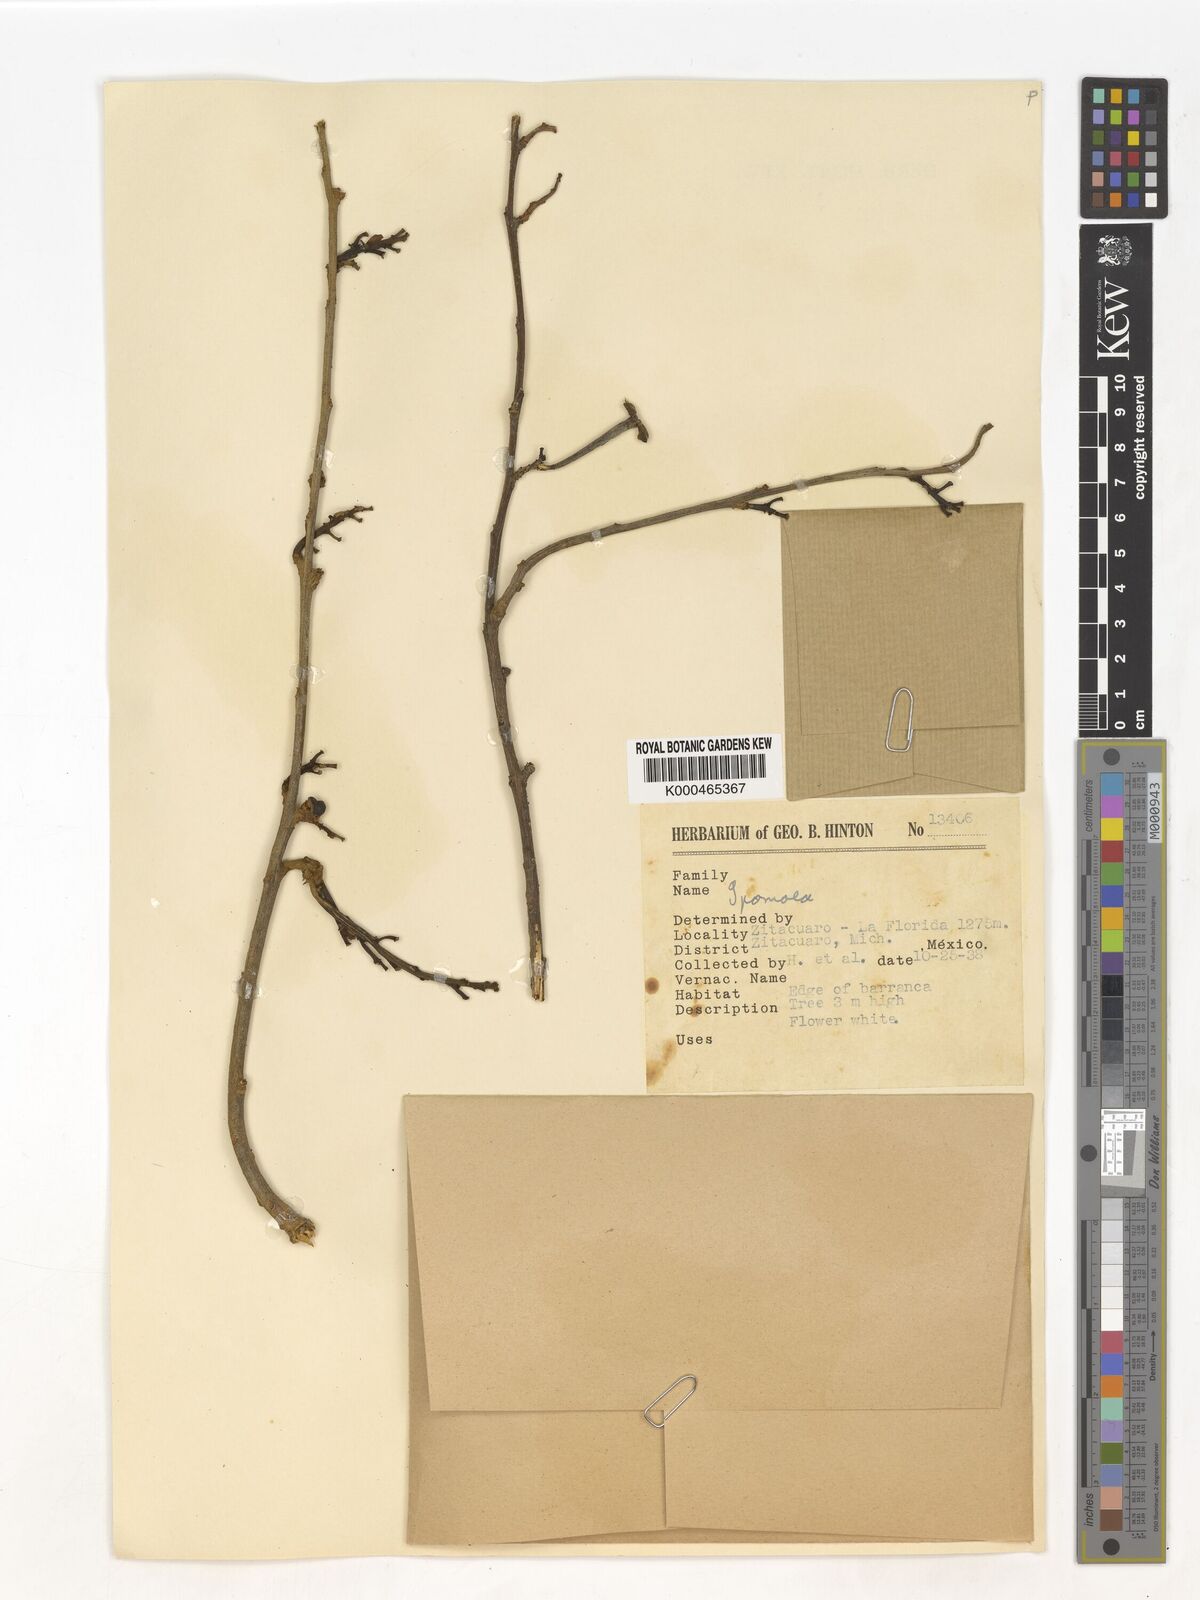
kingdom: Plantae
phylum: Tracheophyta
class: Magnoliopsida
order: Solanales
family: Convolvulaceae
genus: Ipomoea
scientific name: Ipomoea
